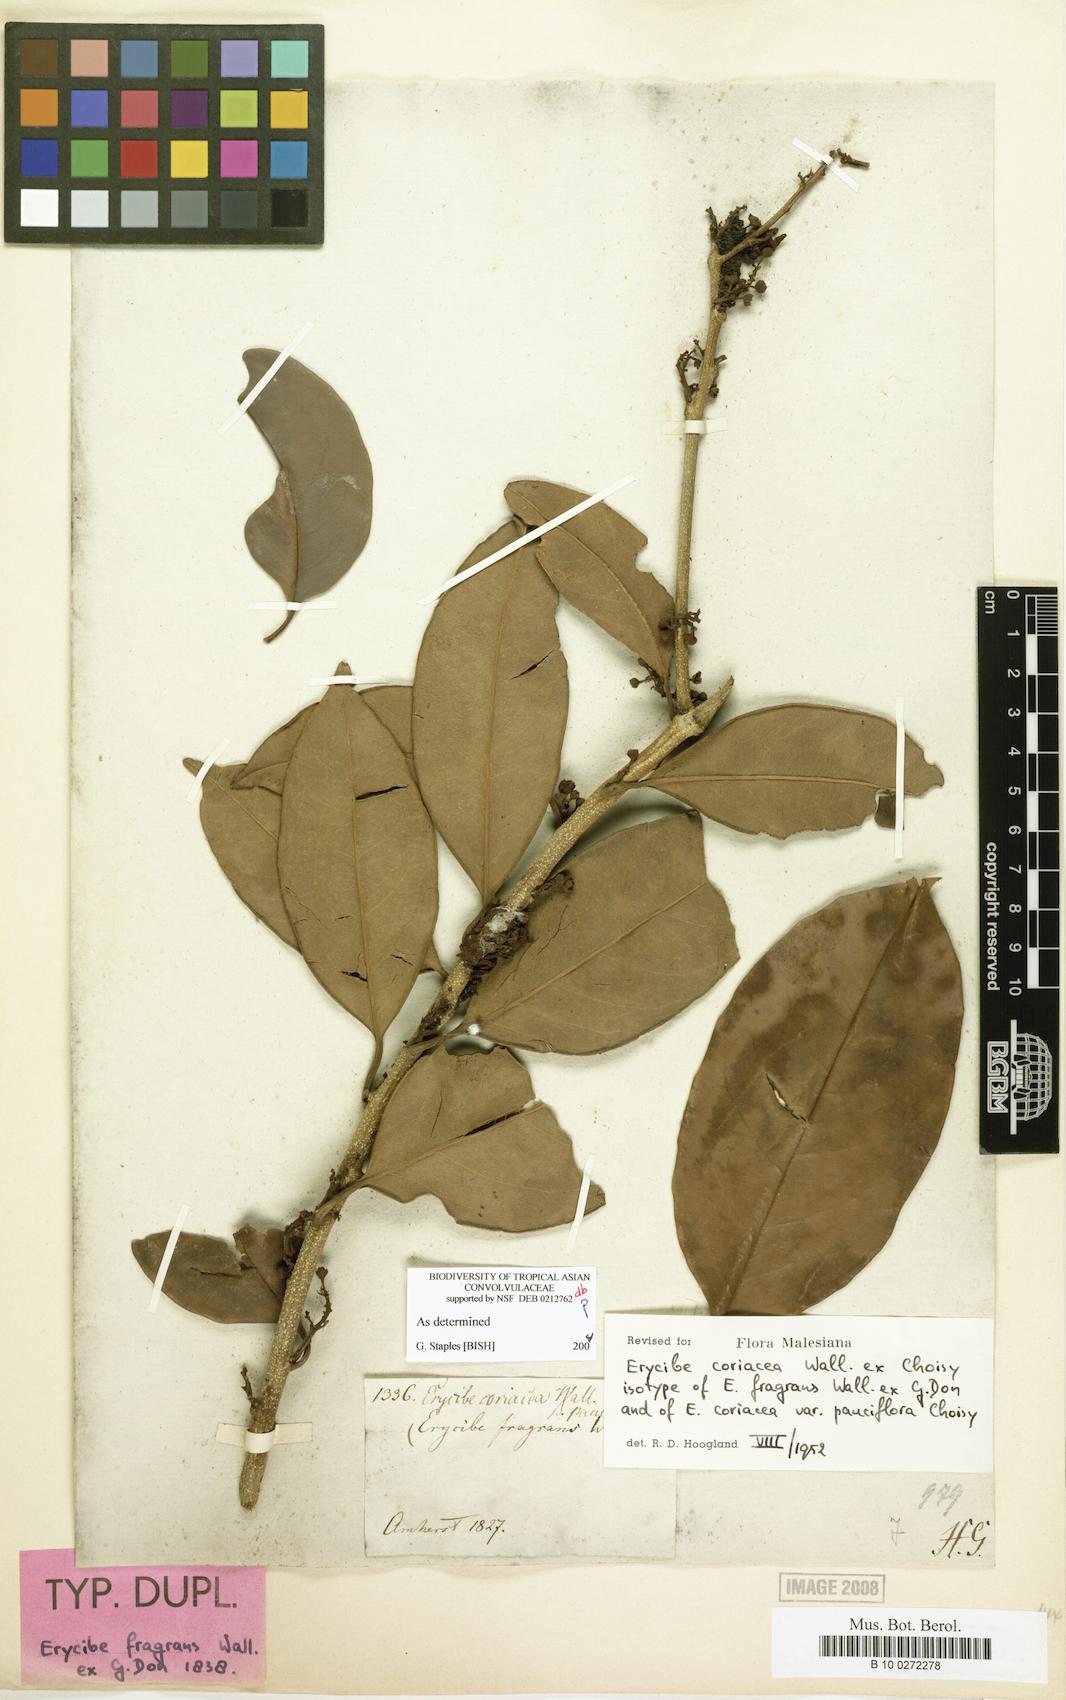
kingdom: Plantae
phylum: Tracheophyta
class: Magnoliopsida
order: Solanales
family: Convolvulaceae
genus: Erycibe
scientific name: Erycibe coriacea
